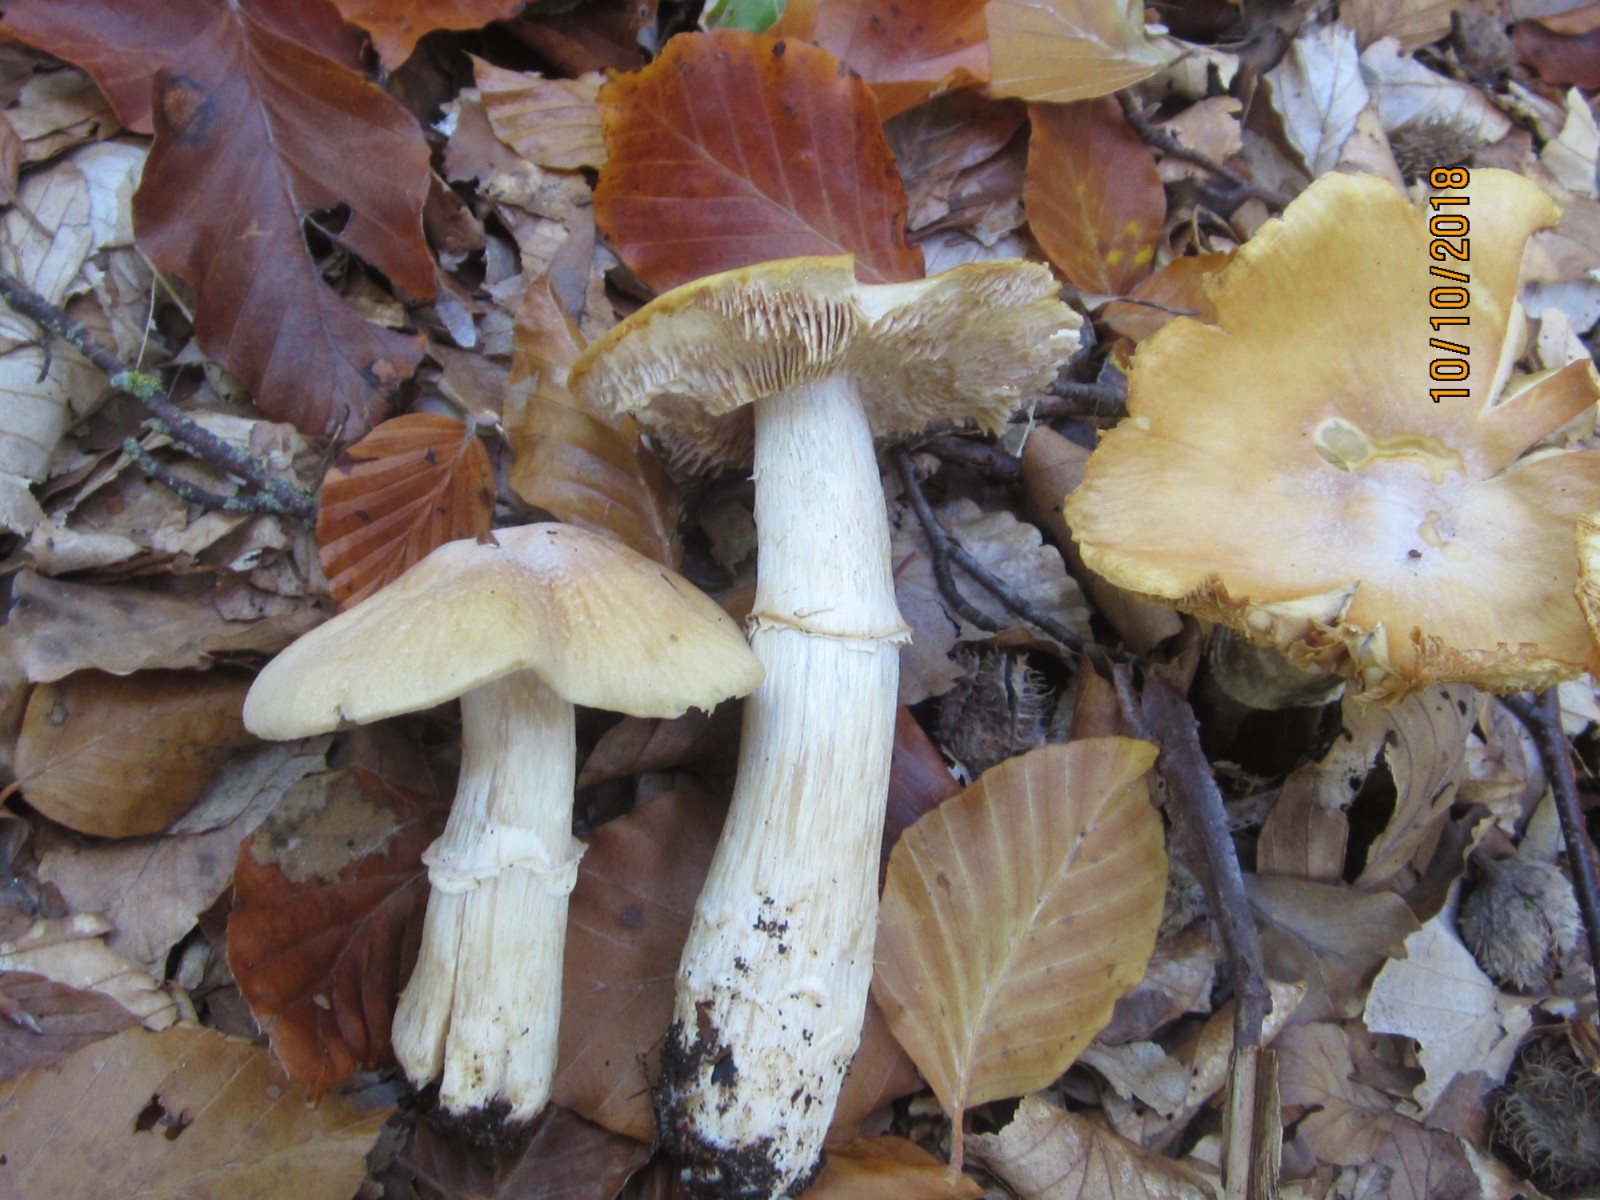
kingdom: Fungi
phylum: Basidiomycota
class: Agaricomycetes
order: Agaricales
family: Cortinariaceae
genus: Cortinarius
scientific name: Cortinarius caperatus
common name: klidhat
